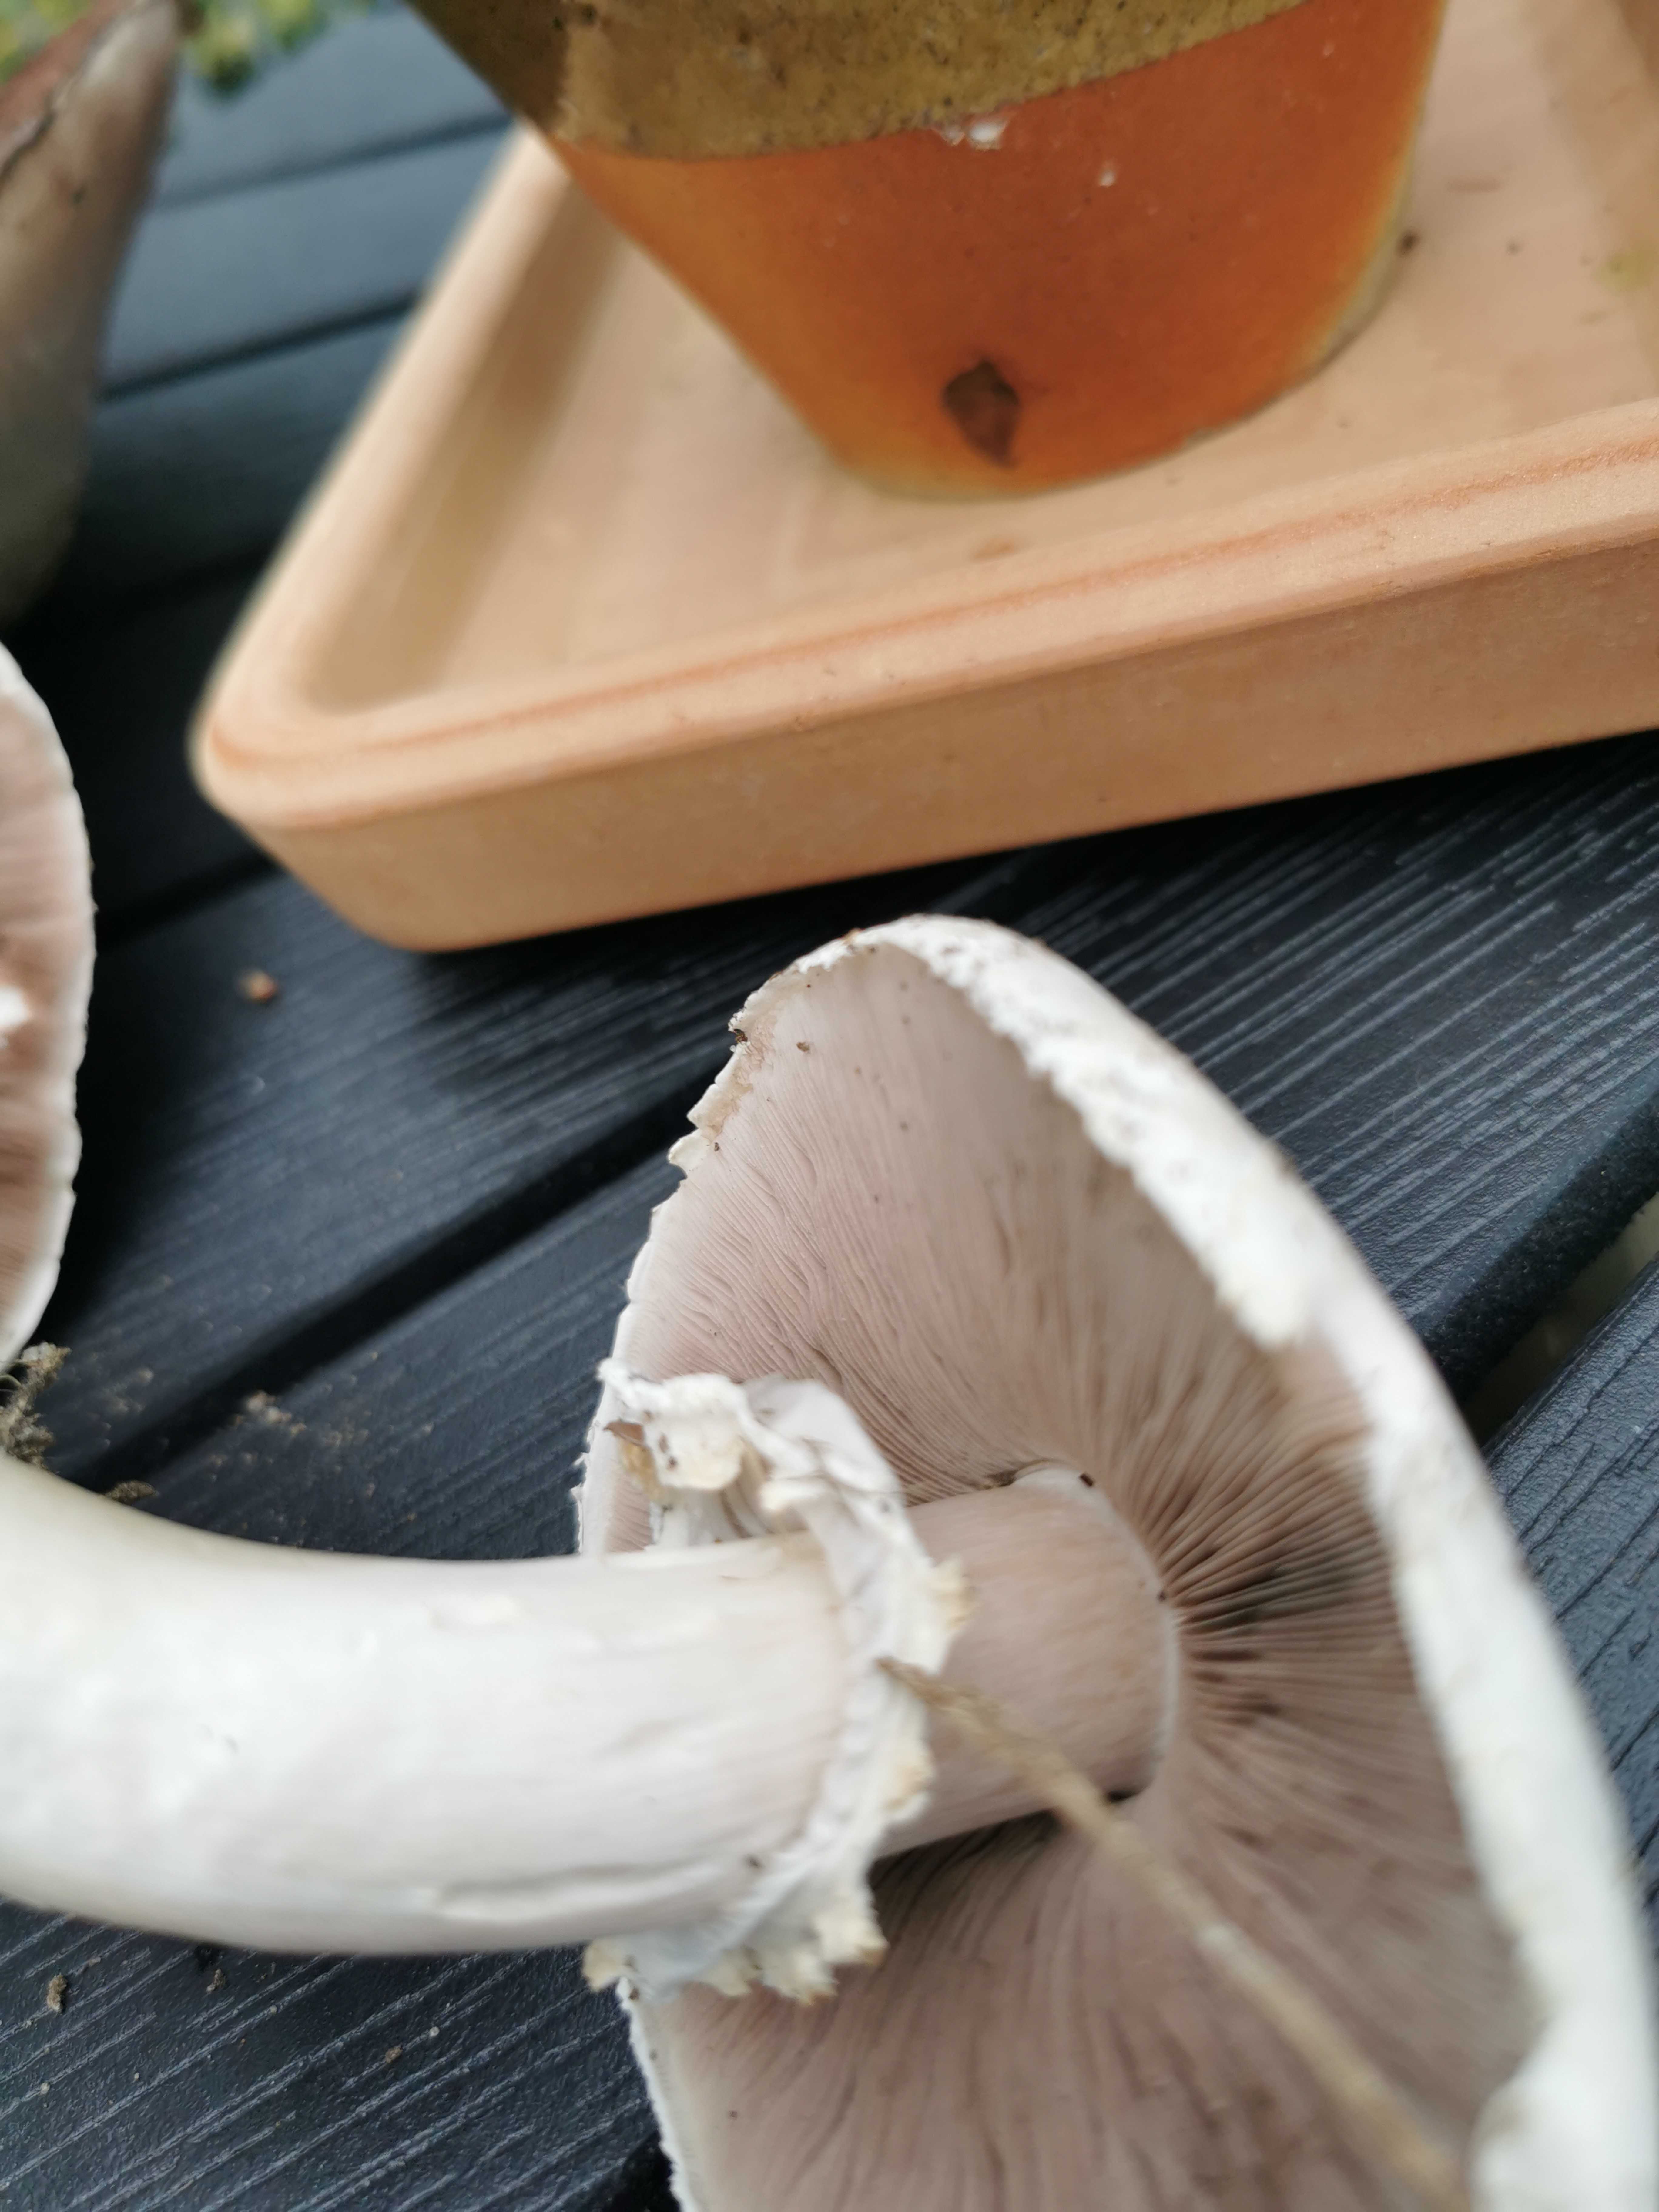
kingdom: Fungi
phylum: Basidiomycota
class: Agaricomycetes
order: Agaricales
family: Agaricaceae
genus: Agaricus
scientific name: Agaricus
